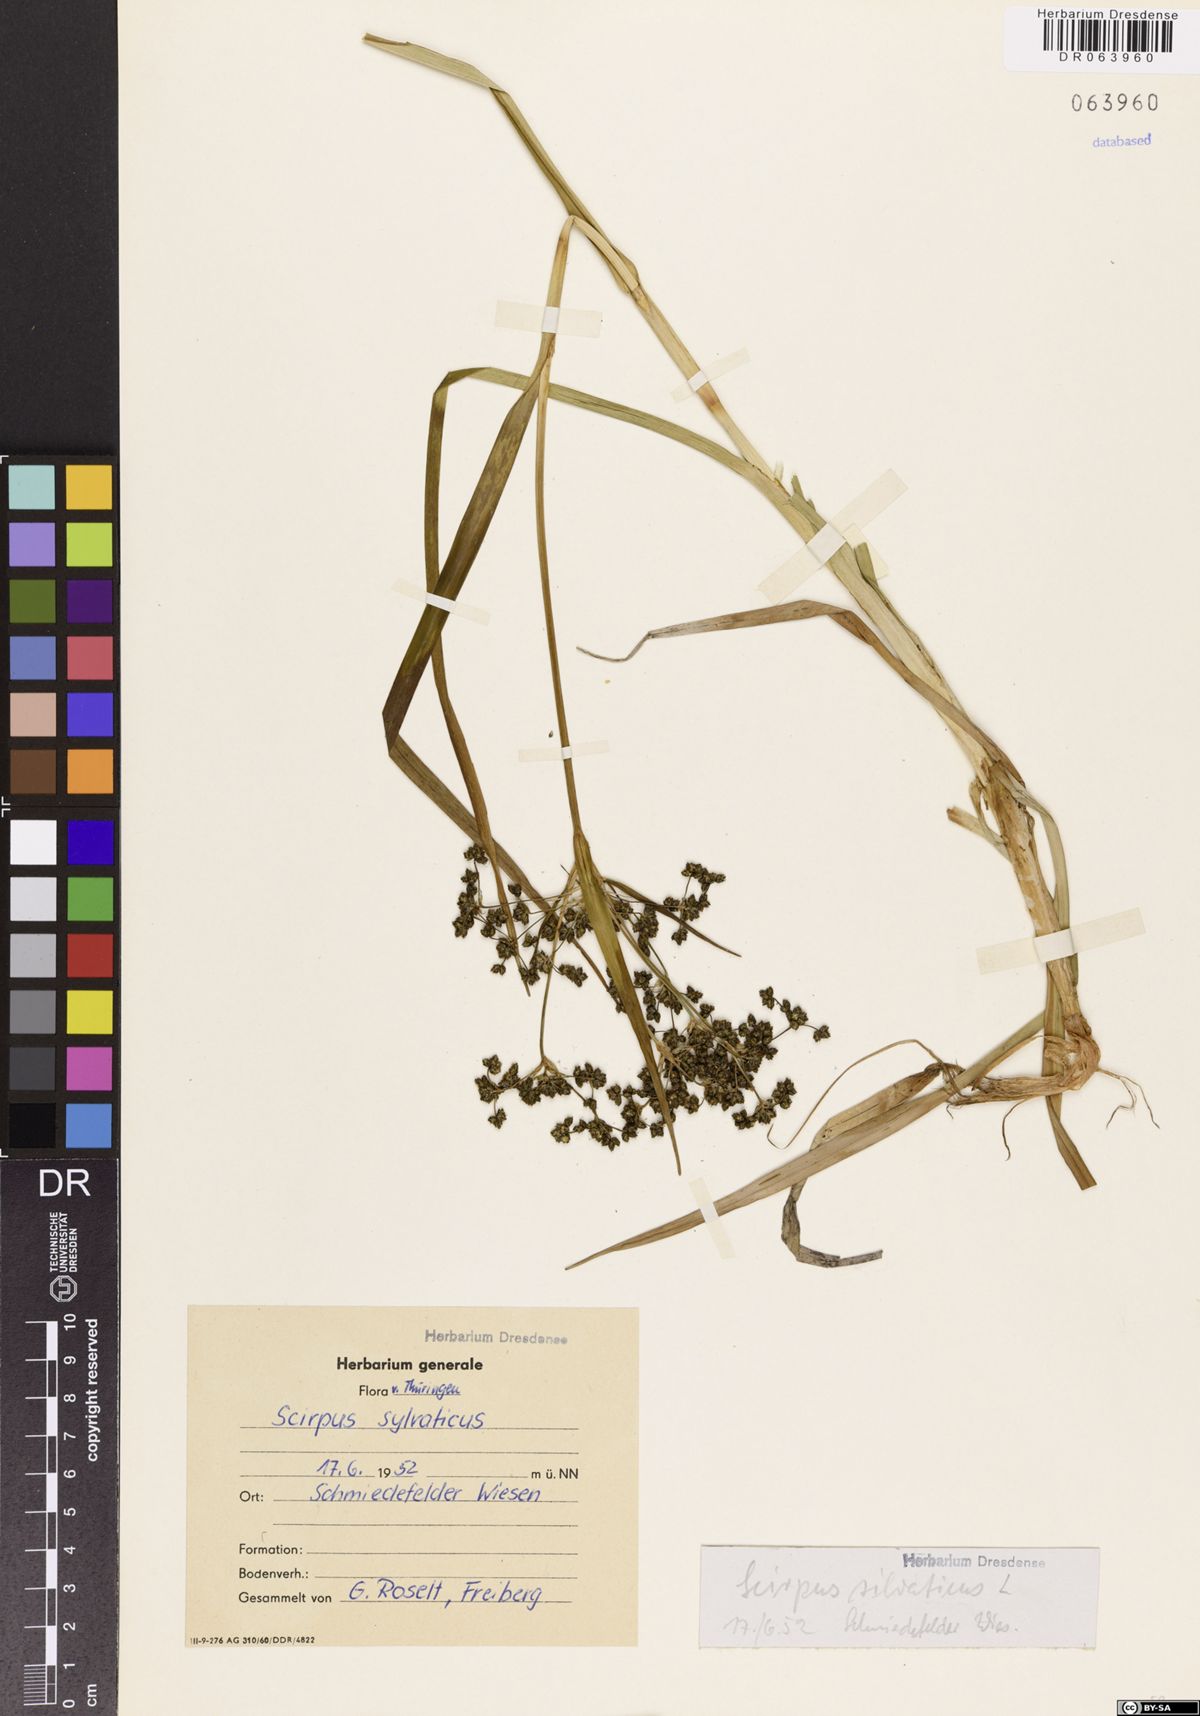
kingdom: Plantae
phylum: Tracheophyta
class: Liliopsida
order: Poales
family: Cyperaceae
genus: Scirpus
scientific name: Scirpus sylvaticus
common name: Wood club-rush
